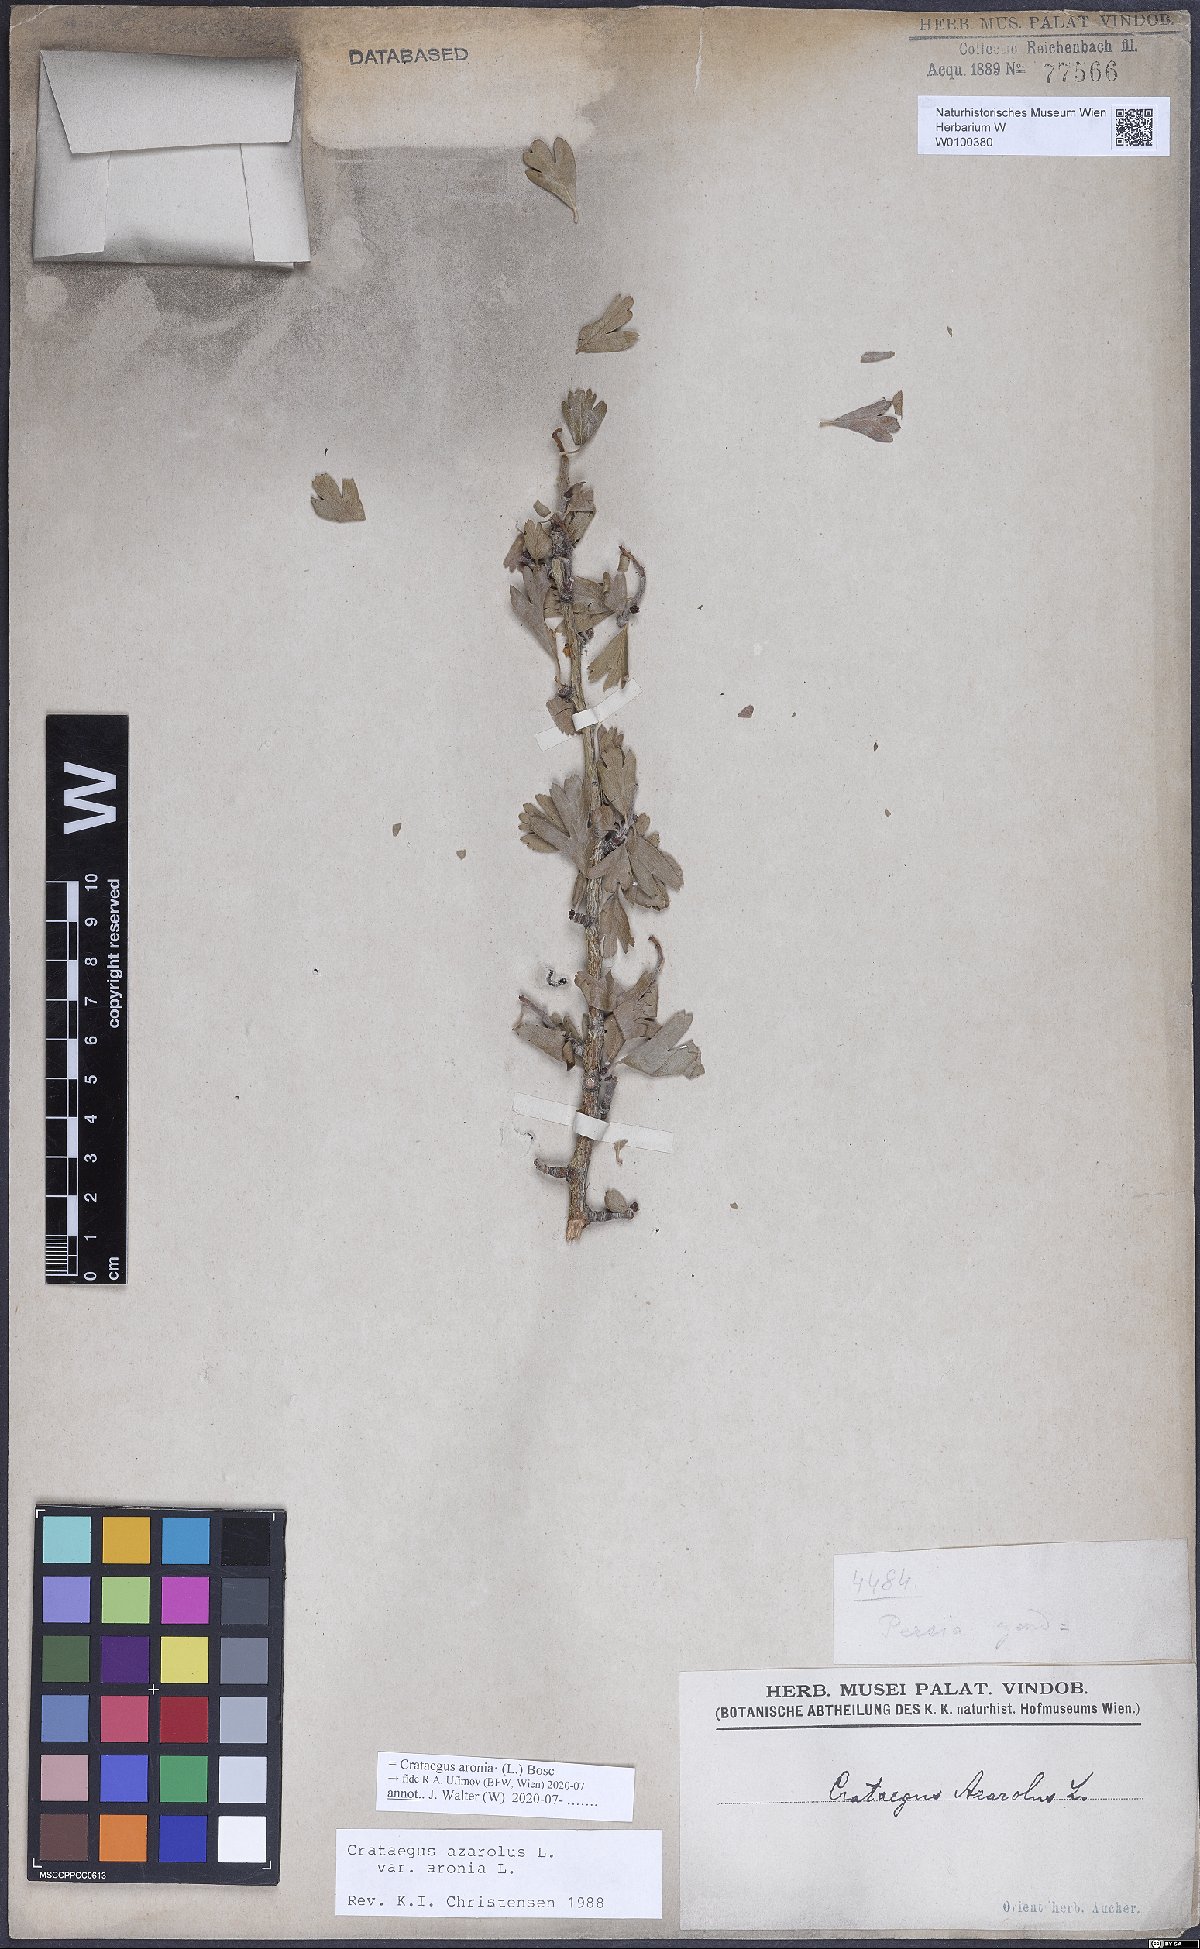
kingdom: Plantae
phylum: Tracheophyta
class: Magnoliopsida
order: Rosales
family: Rosaceae
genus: Crataegus
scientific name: Crataegus azarolus
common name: Azarole
